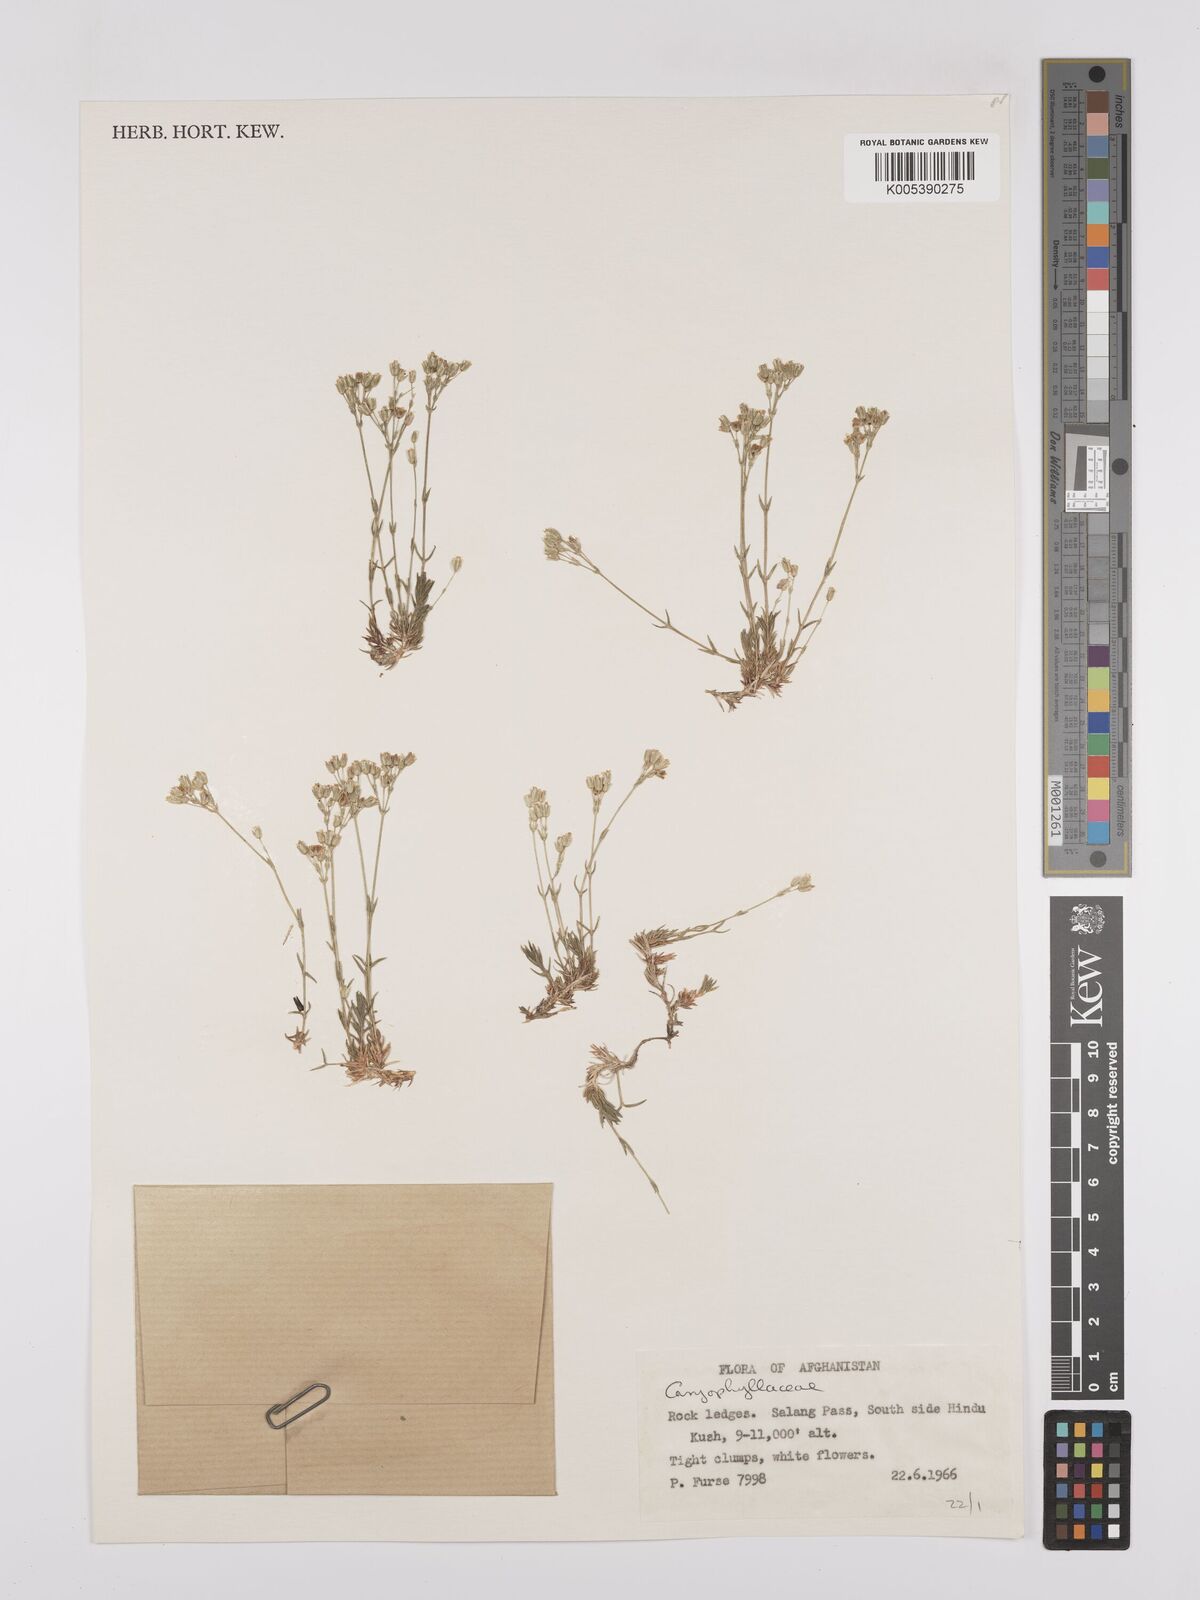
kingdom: Plantae
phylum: Tracheophyta
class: Magnoliopsida
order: Caryophyllales
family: Caryophyllaceae
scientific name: Caryophyllaceae
